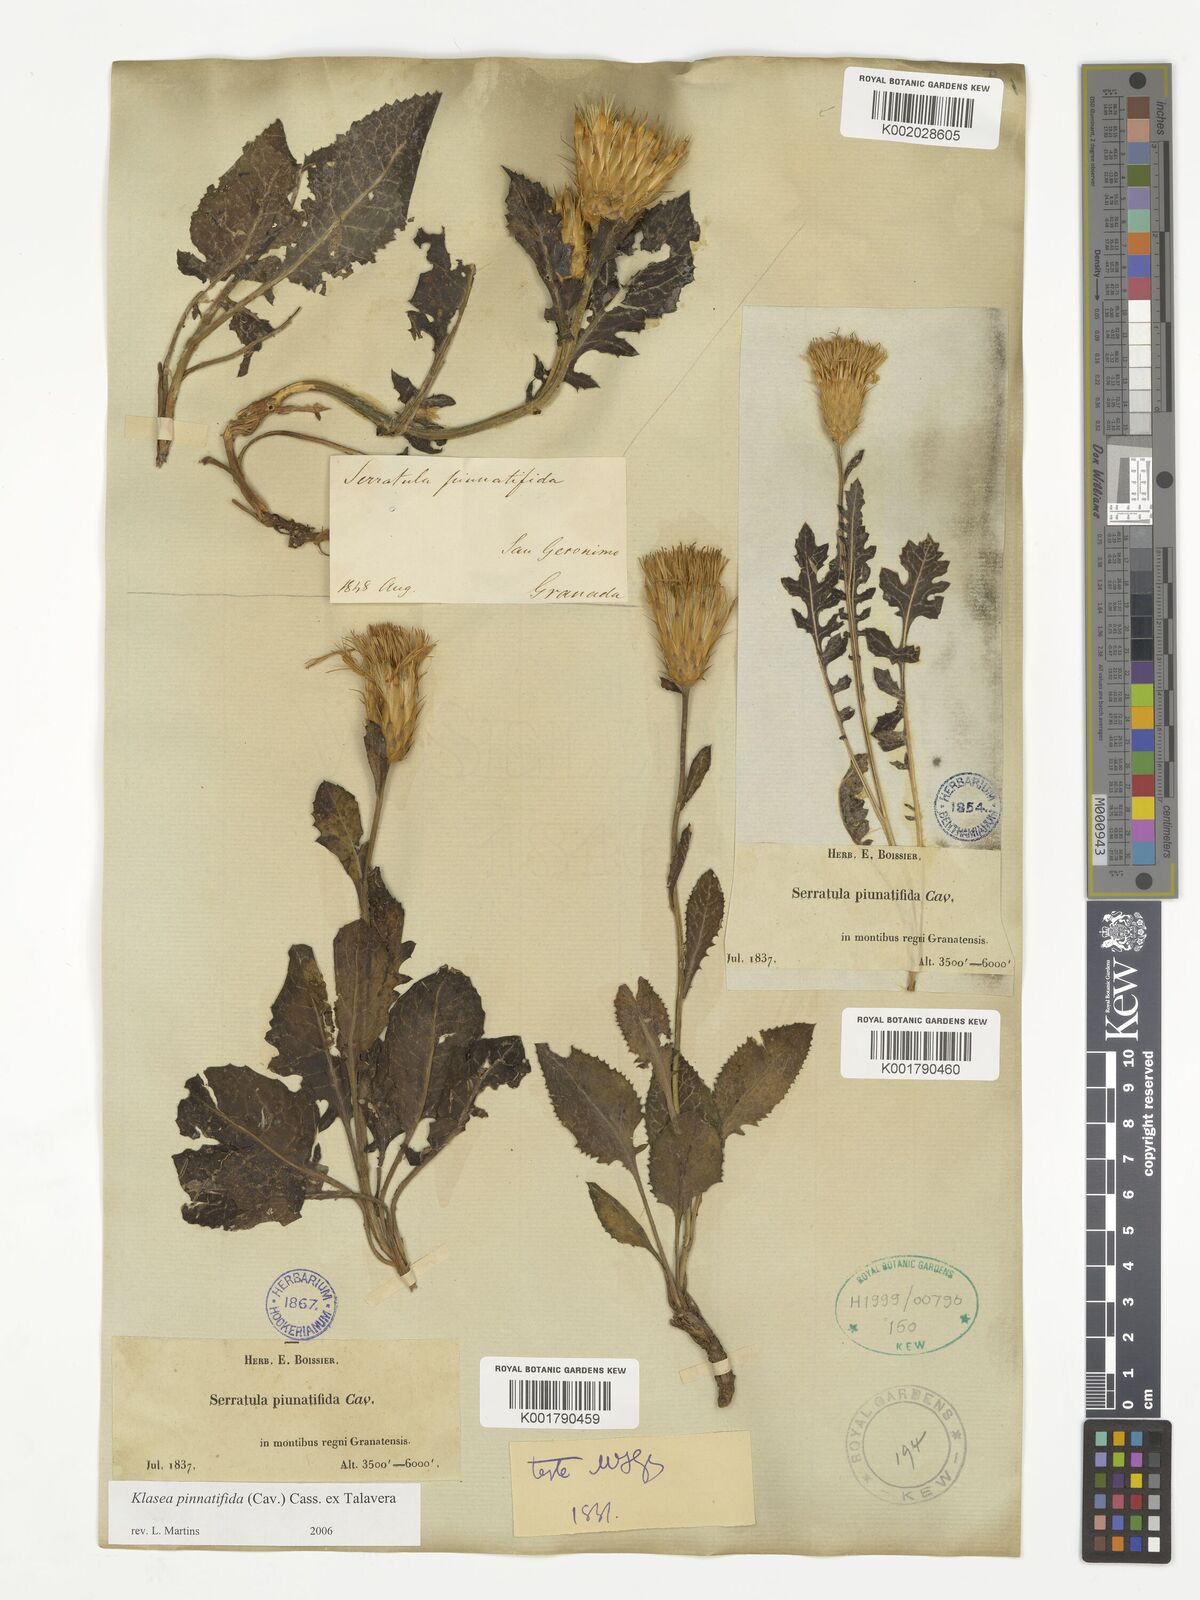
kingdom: Plantae
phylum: Tracheophyta
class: Magnoliopsida
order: Asterales
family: Asteraceae
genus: Klasea
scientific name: Klasea pinnatifida
